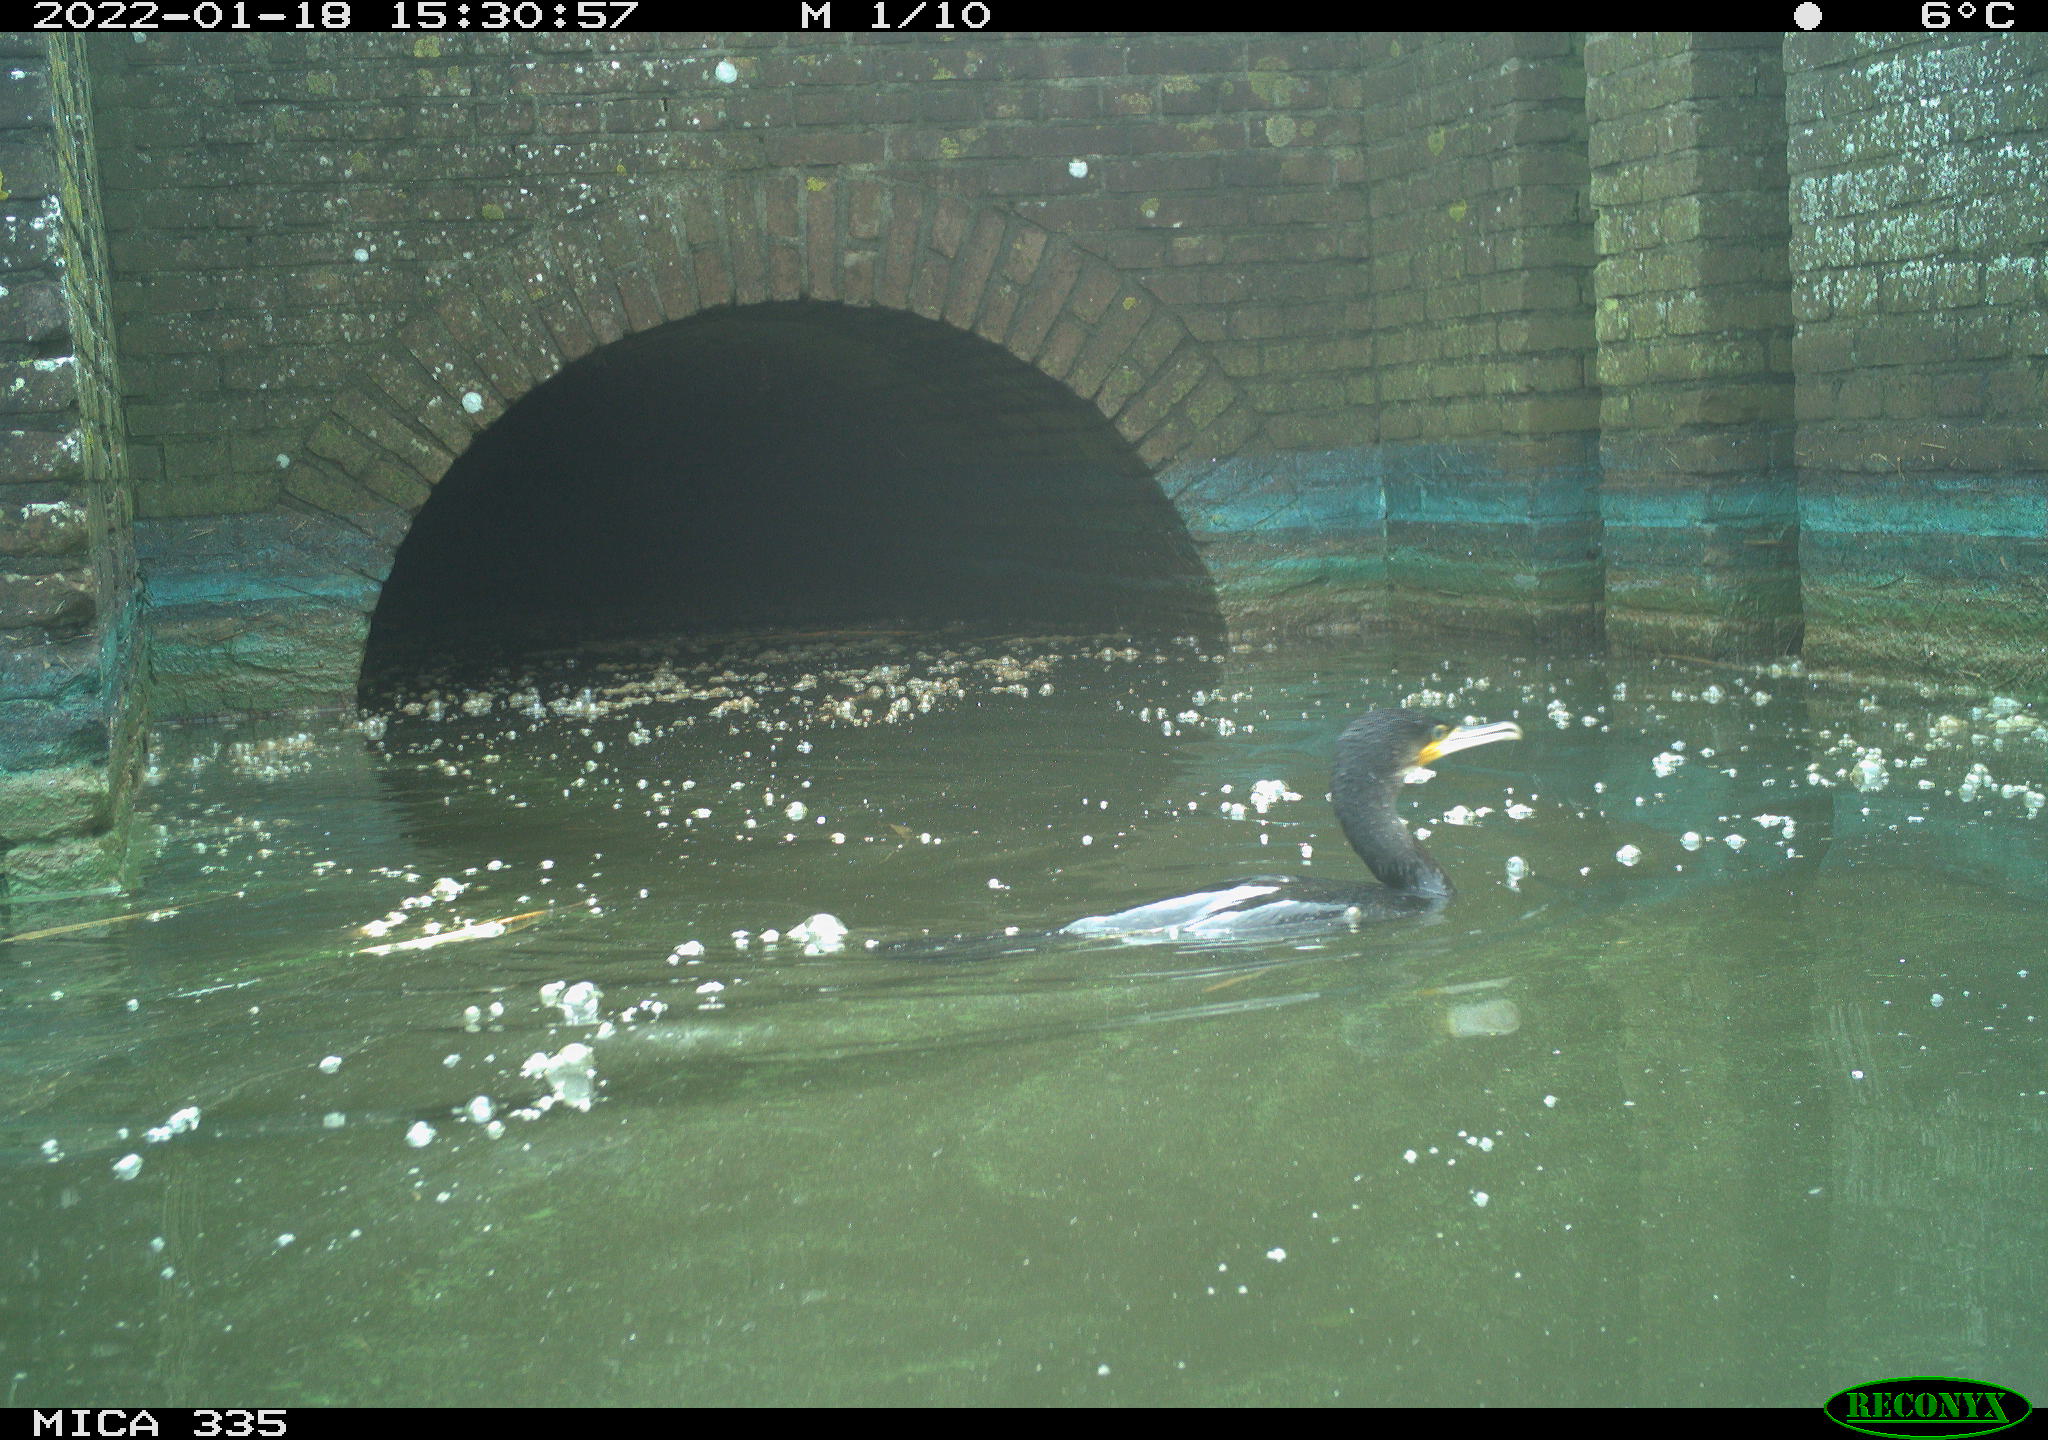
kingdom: Animalia
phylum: Chordata
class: Aves
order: Suliformes
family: Phalacrocoracidae
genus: Phalacrocorax
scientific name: Phalacrocorax carbo
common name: Great cormorant
